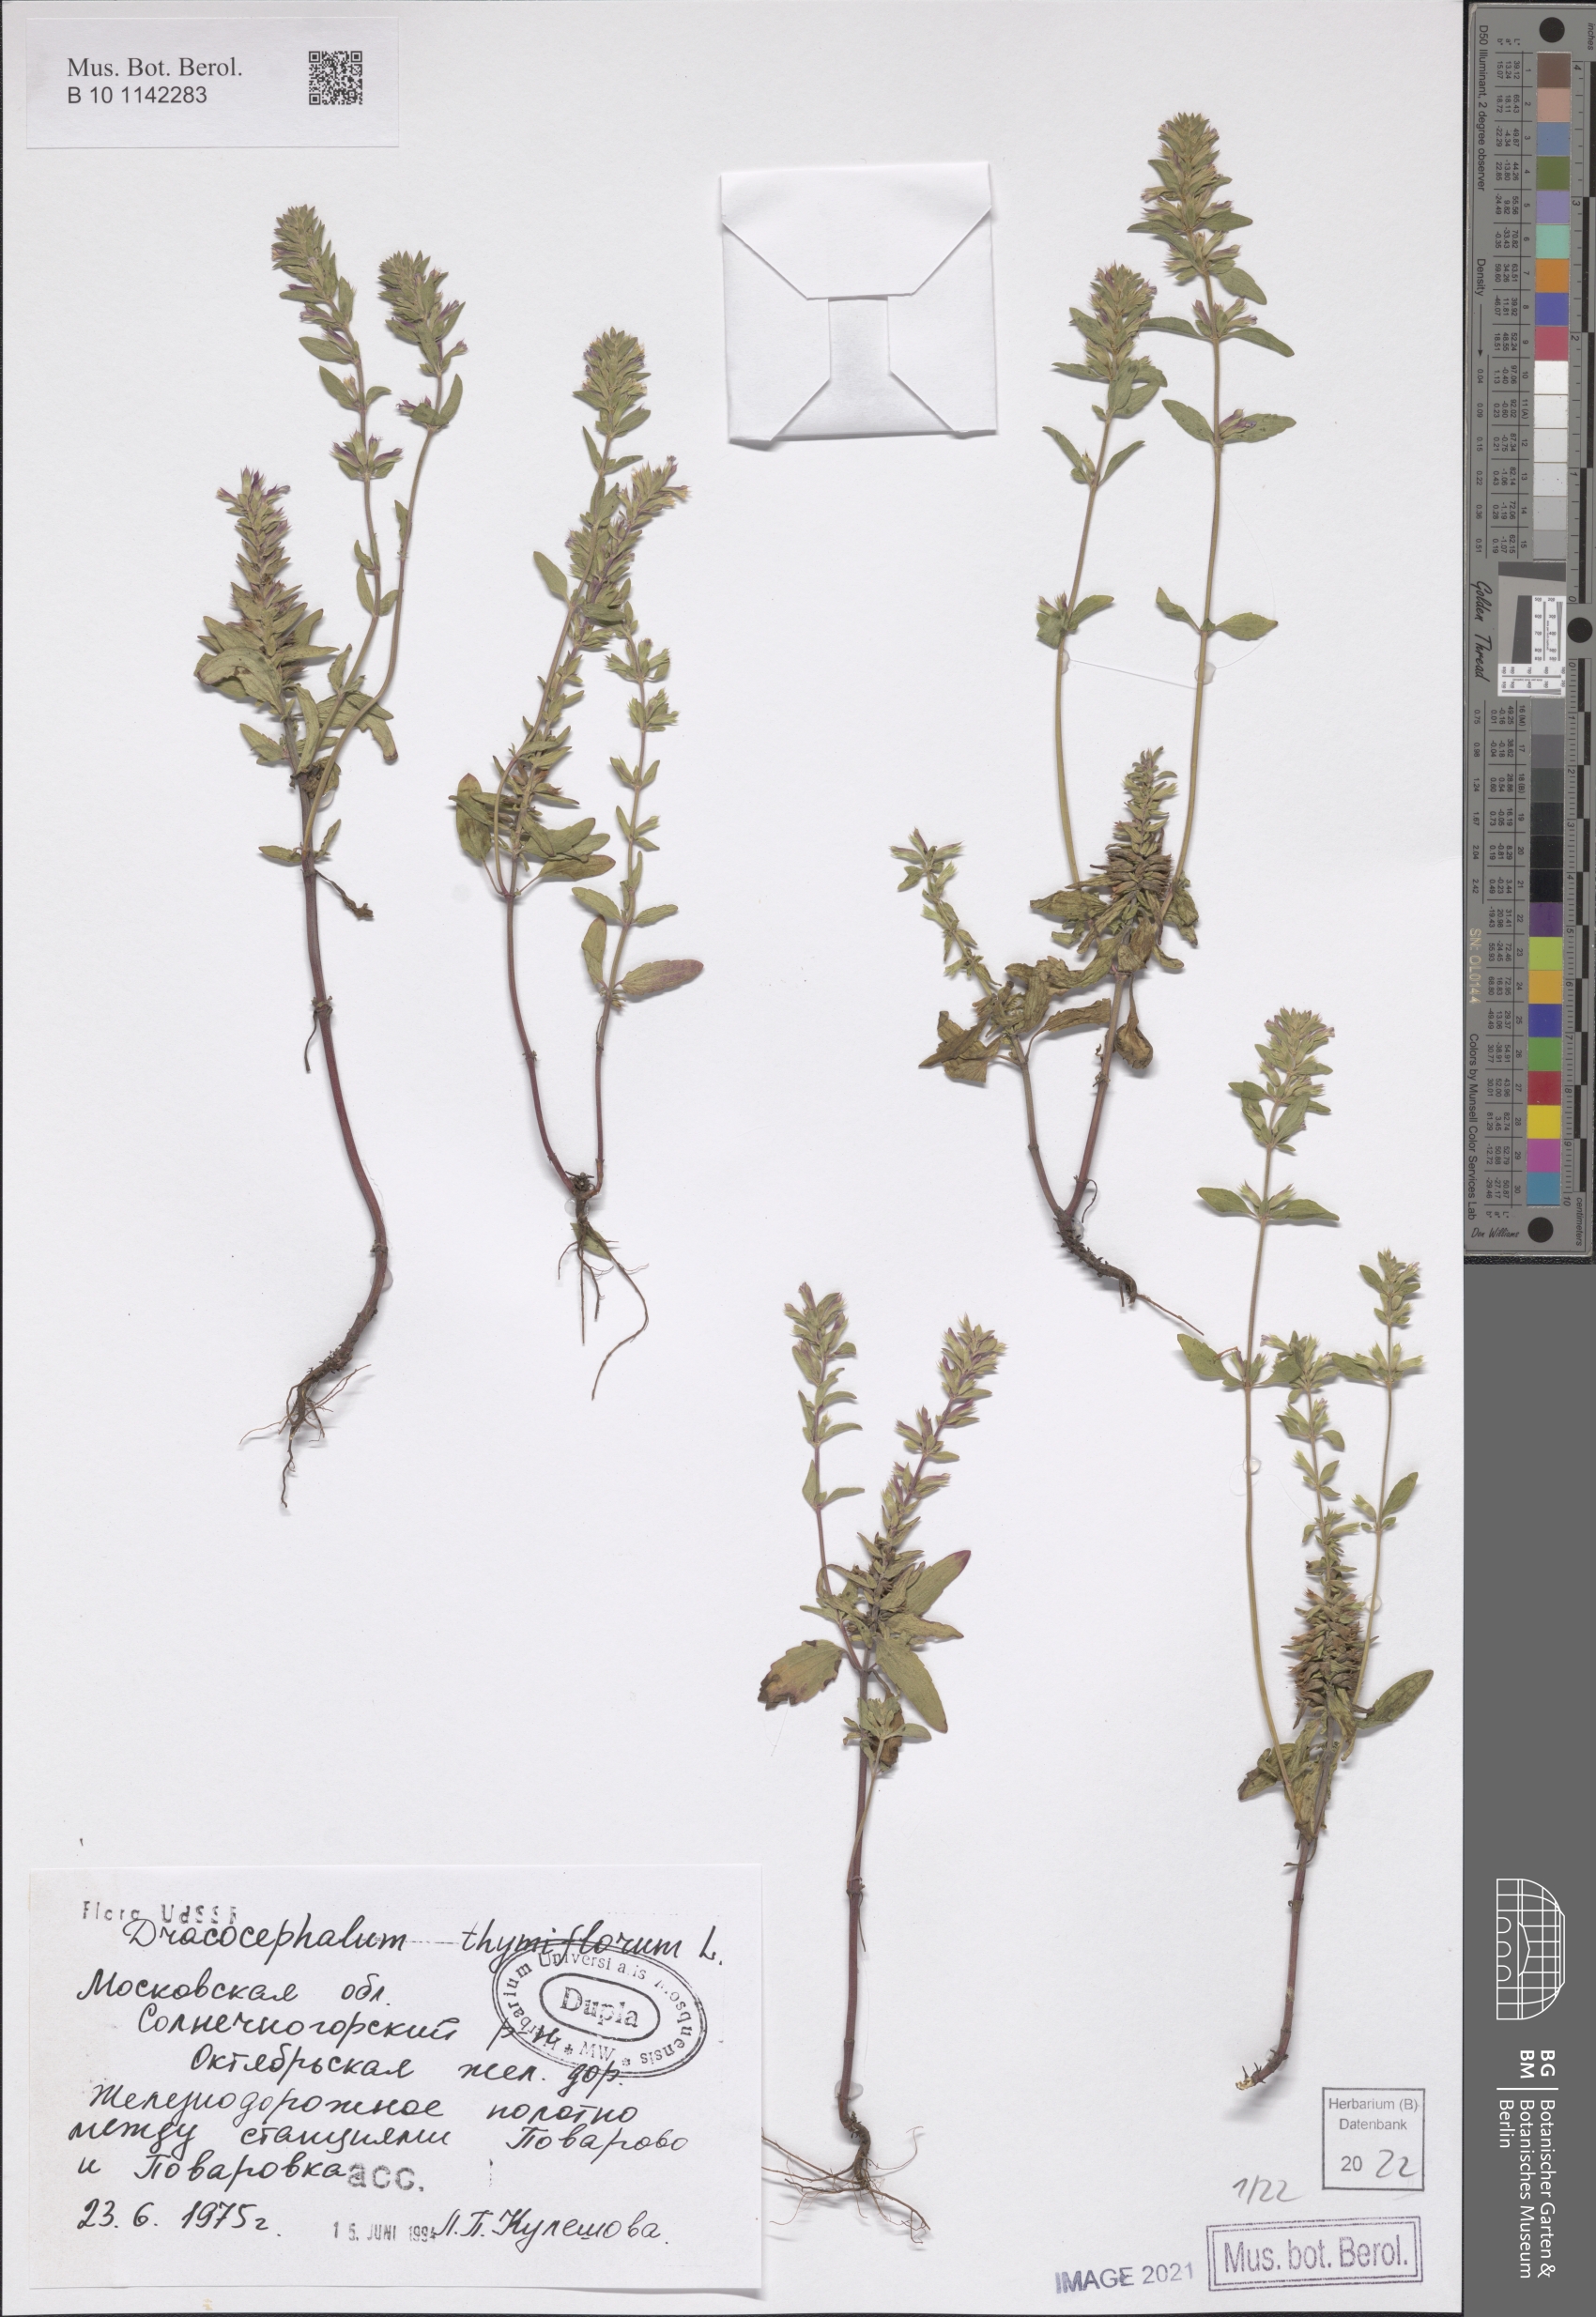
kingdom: Plantae
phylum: Tracheophyta
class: Magnoliopsida
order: Lamiales
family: Lamiaceae
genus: Dracocephalum
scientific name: Dracocephalum thymiflorum
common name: Thymeleaf dragonhead
